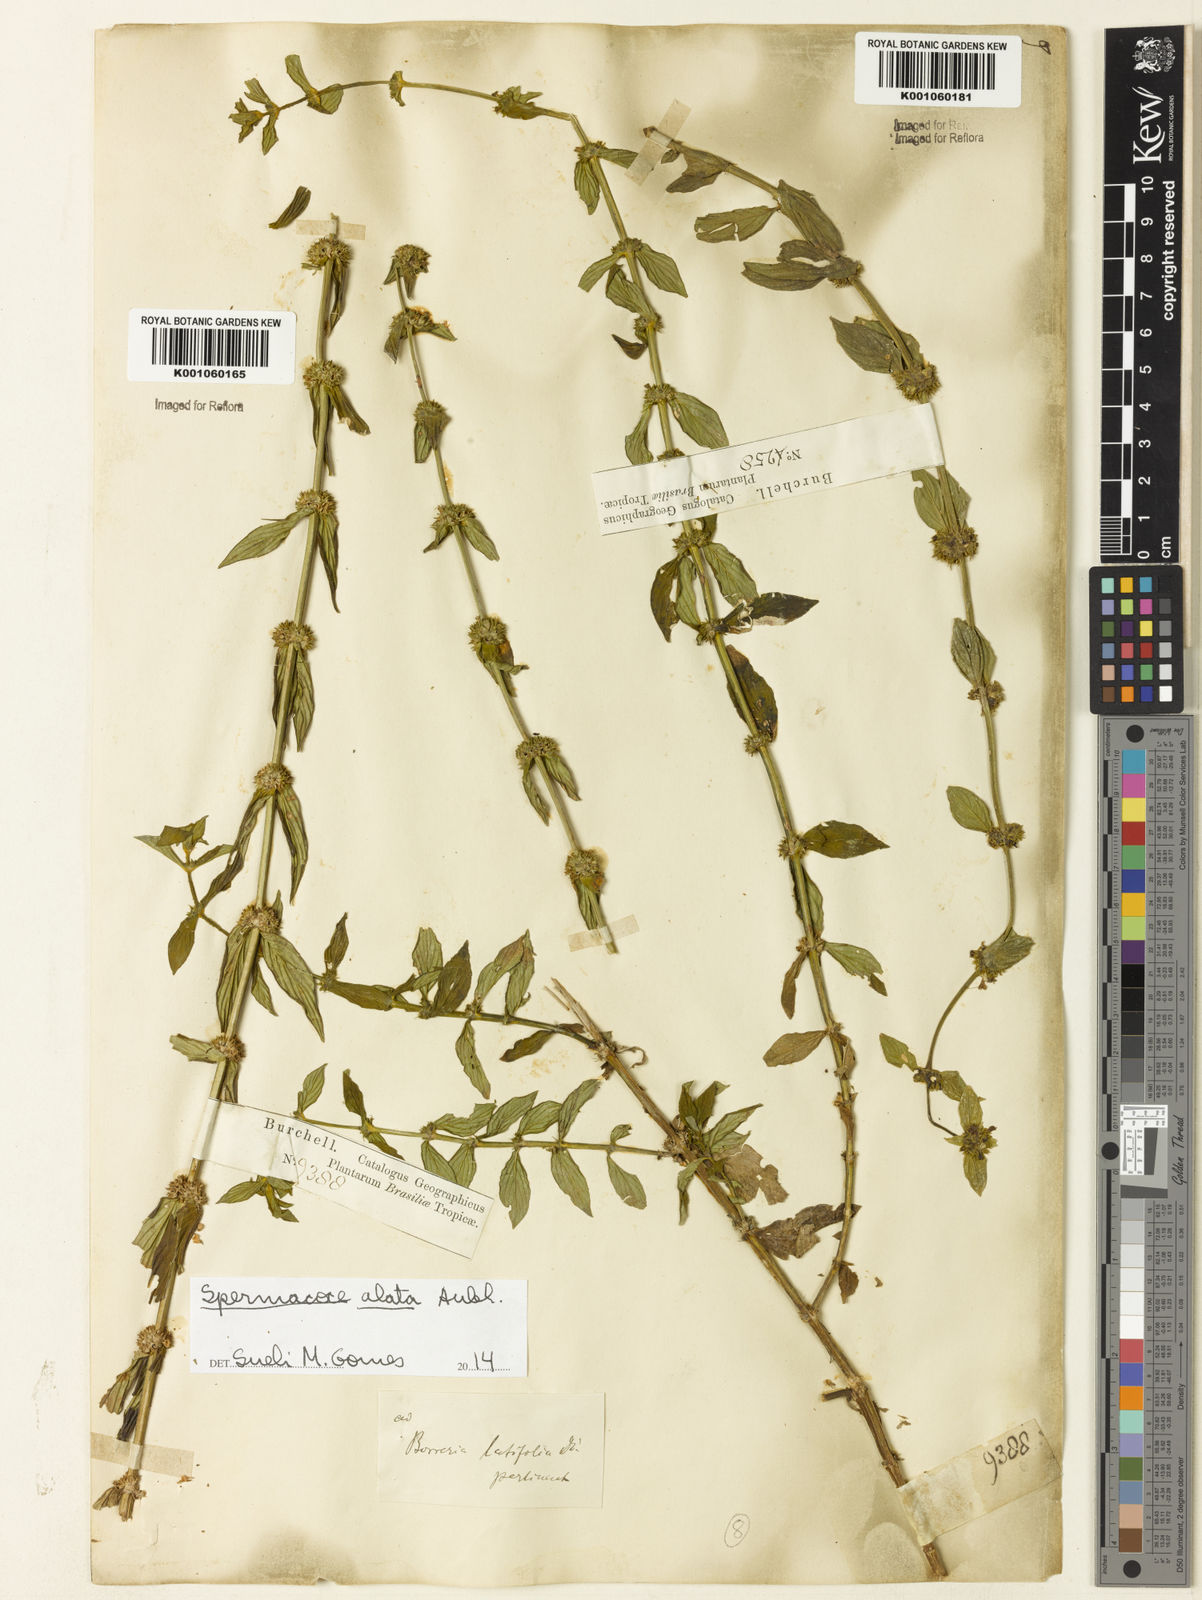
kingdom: Plantae
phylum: Tracheophyta
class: Magnoliopsida
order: Gentianales
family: Rubiaceae
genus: Spermacoce
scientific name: Spermacoce alata
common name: Winged false buttonweed
